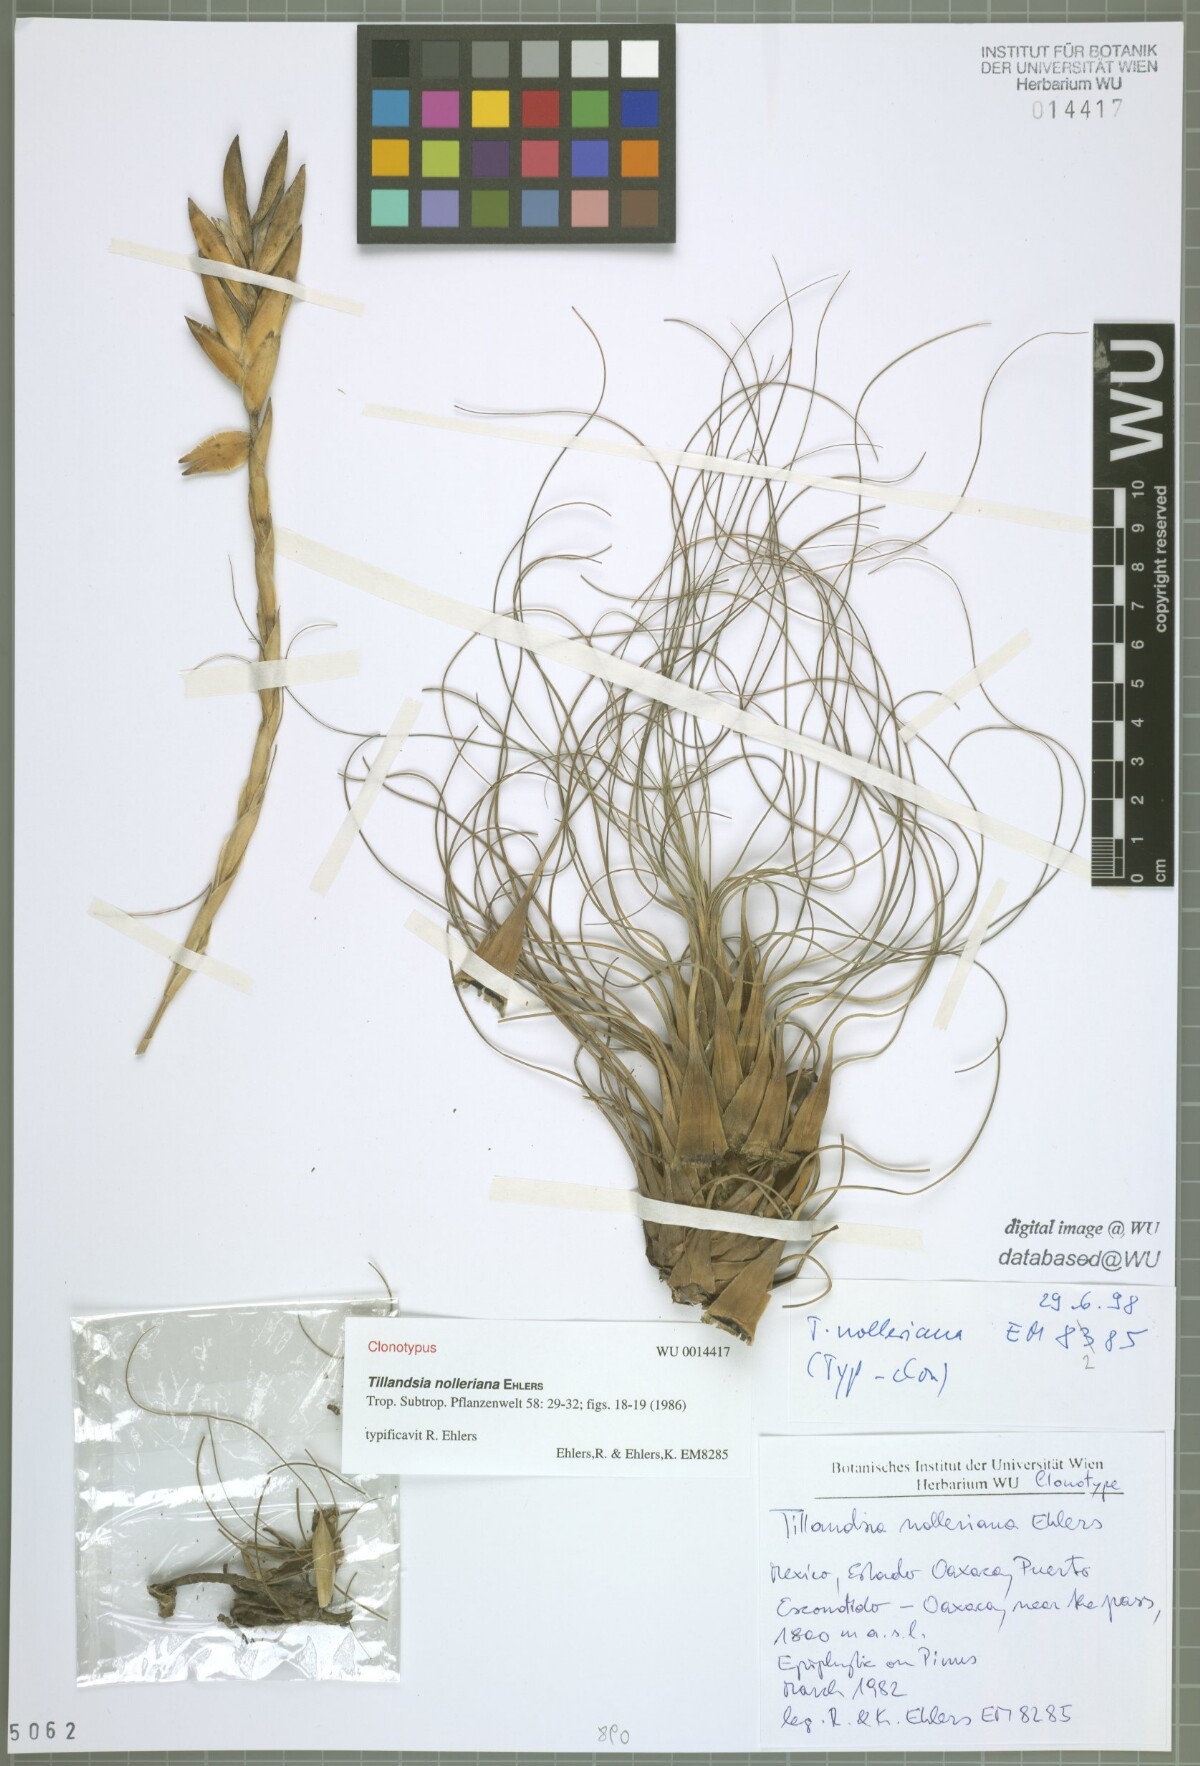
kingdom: Plantae
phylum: Tracheophyta
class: Liliopsida
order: Poales
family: Bromeliaceae
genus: Tillandsia
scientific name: Tillandsia nolleriana
